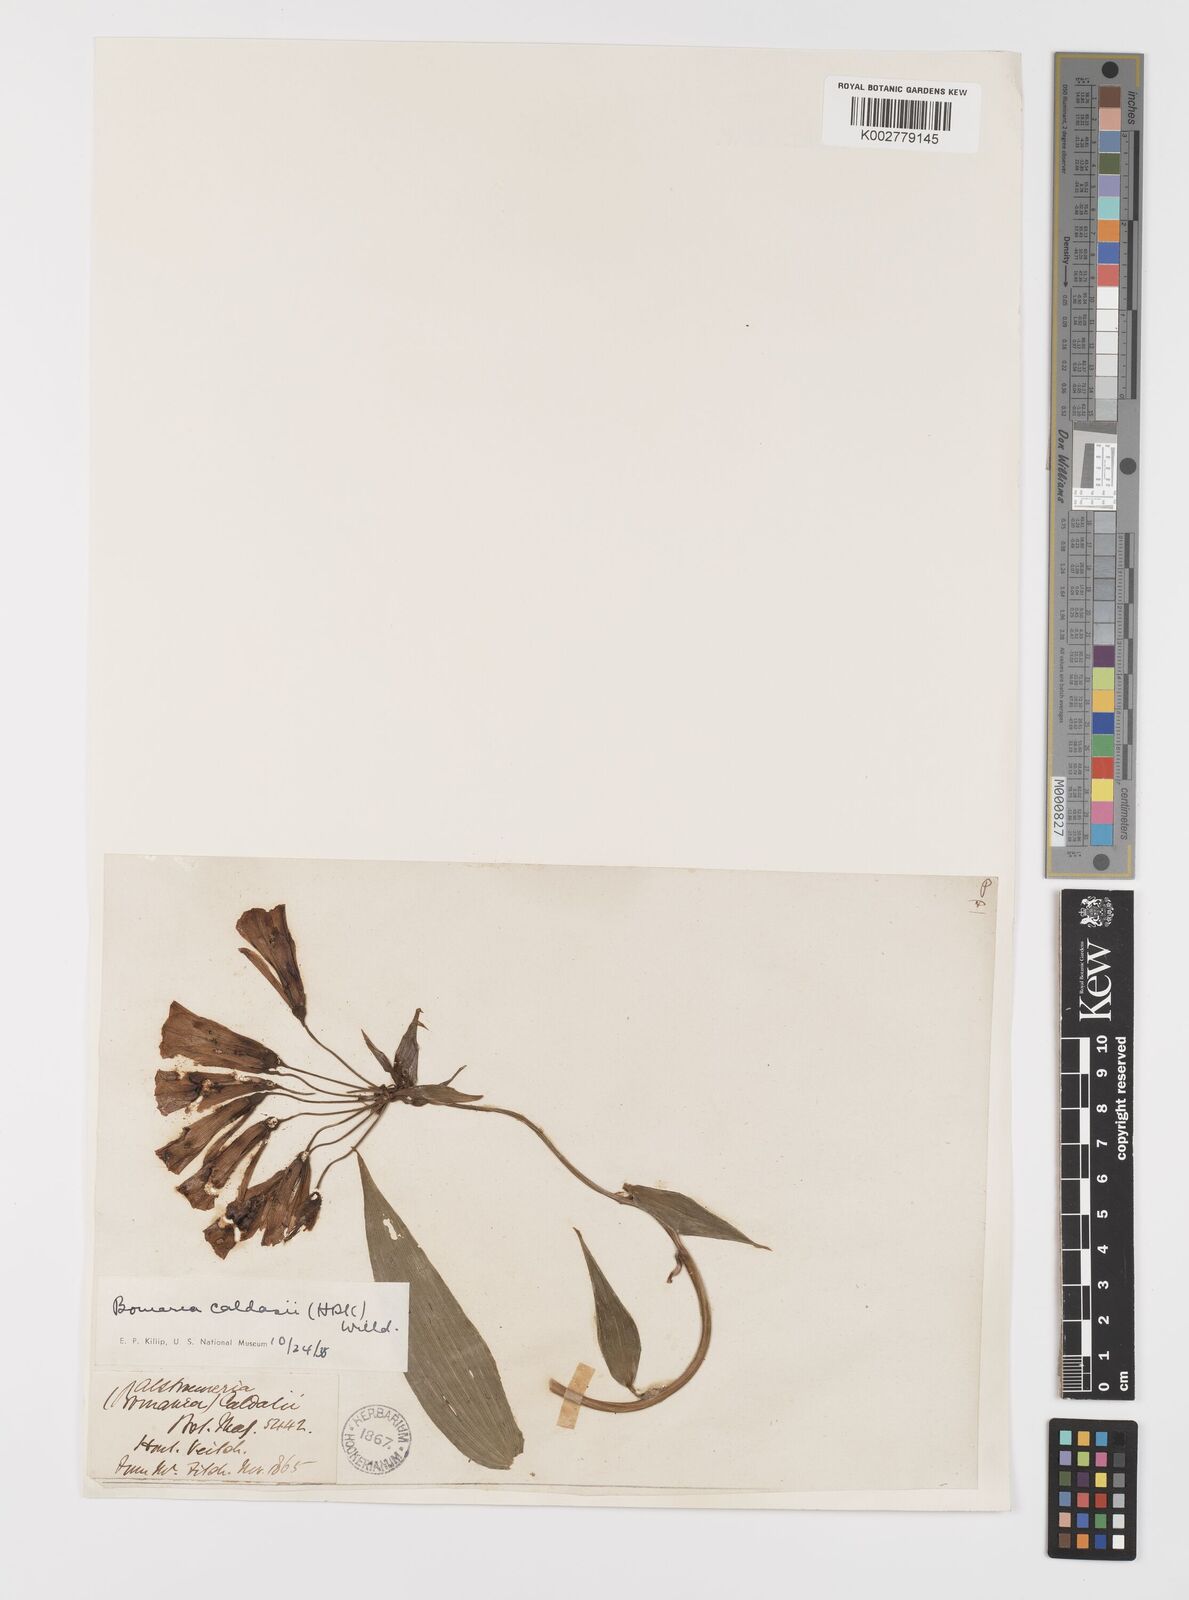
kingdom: Plantae
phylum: Tracheophyta
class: Liliopsida
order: Liliales
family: Alstroemeriaceae
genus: Bomarea
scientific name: Bomarea multiflora
